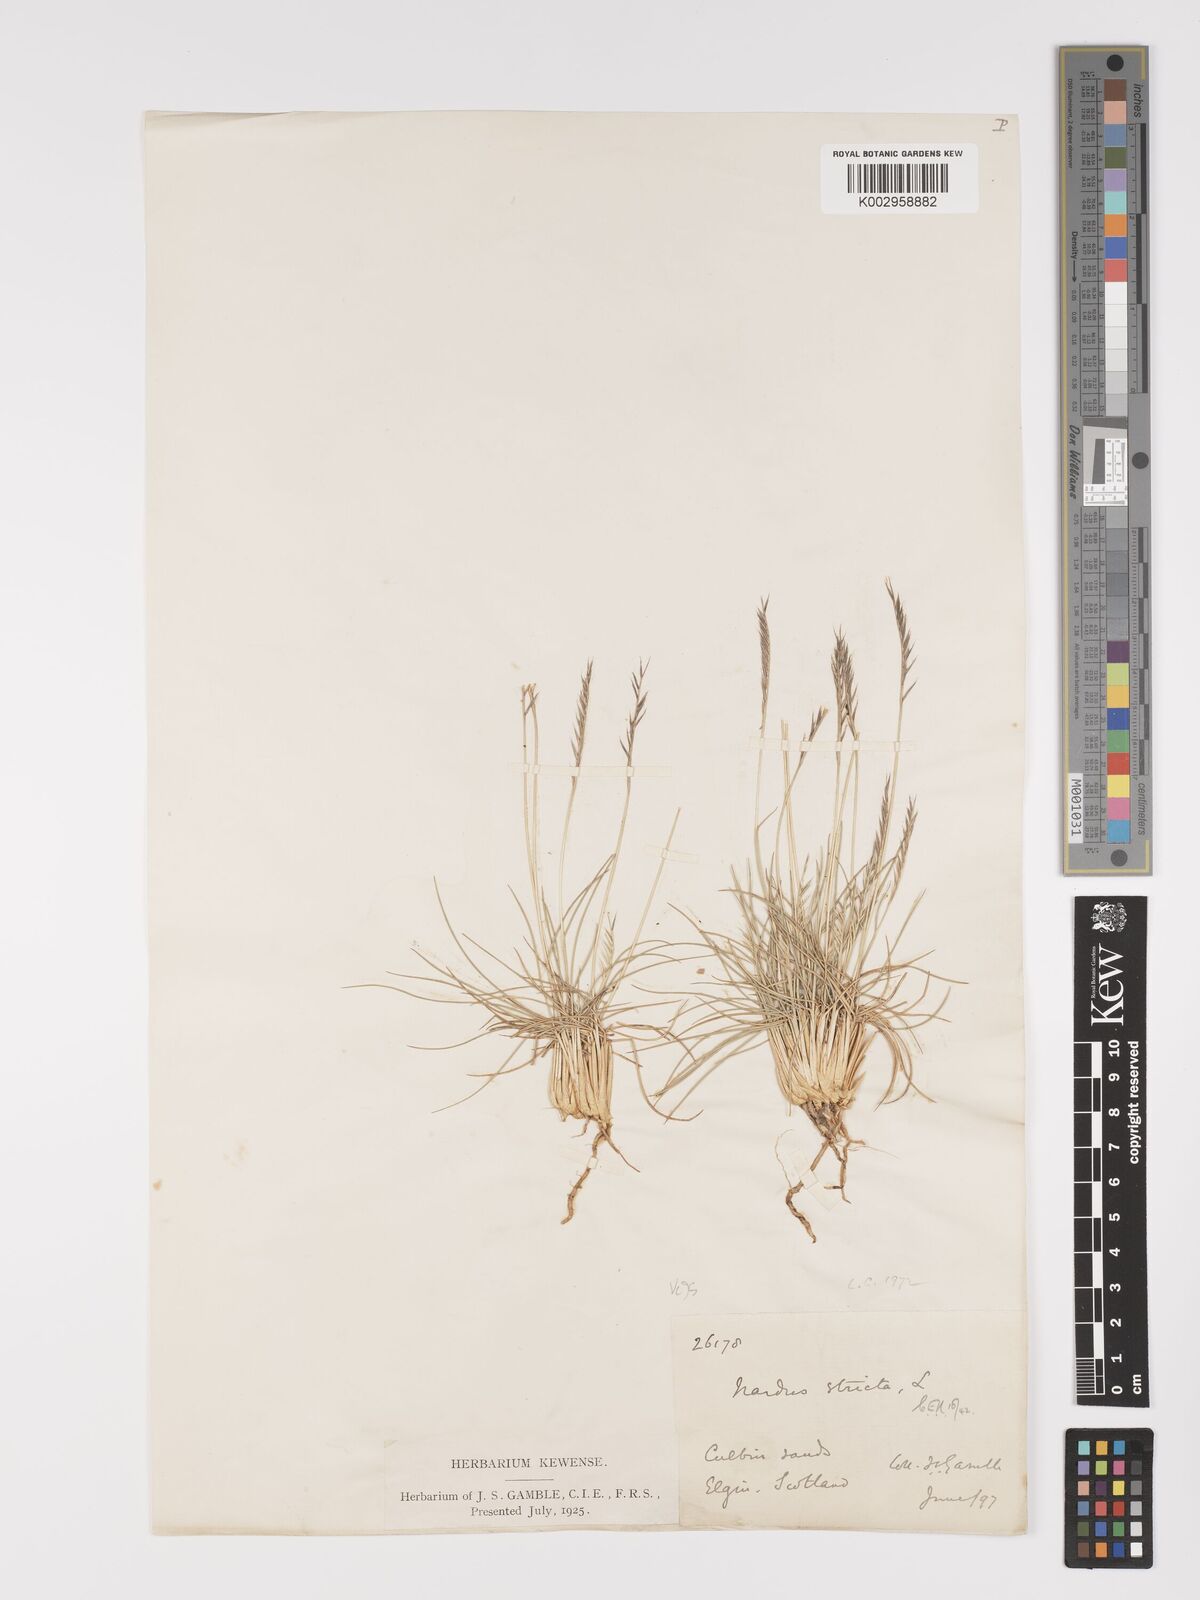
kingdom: Plantae
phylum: Tracheophyta
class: Liliopsida
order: Poales
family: Poaceae
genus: Nardus
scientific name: Nardus stricta
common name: Mat-grass
